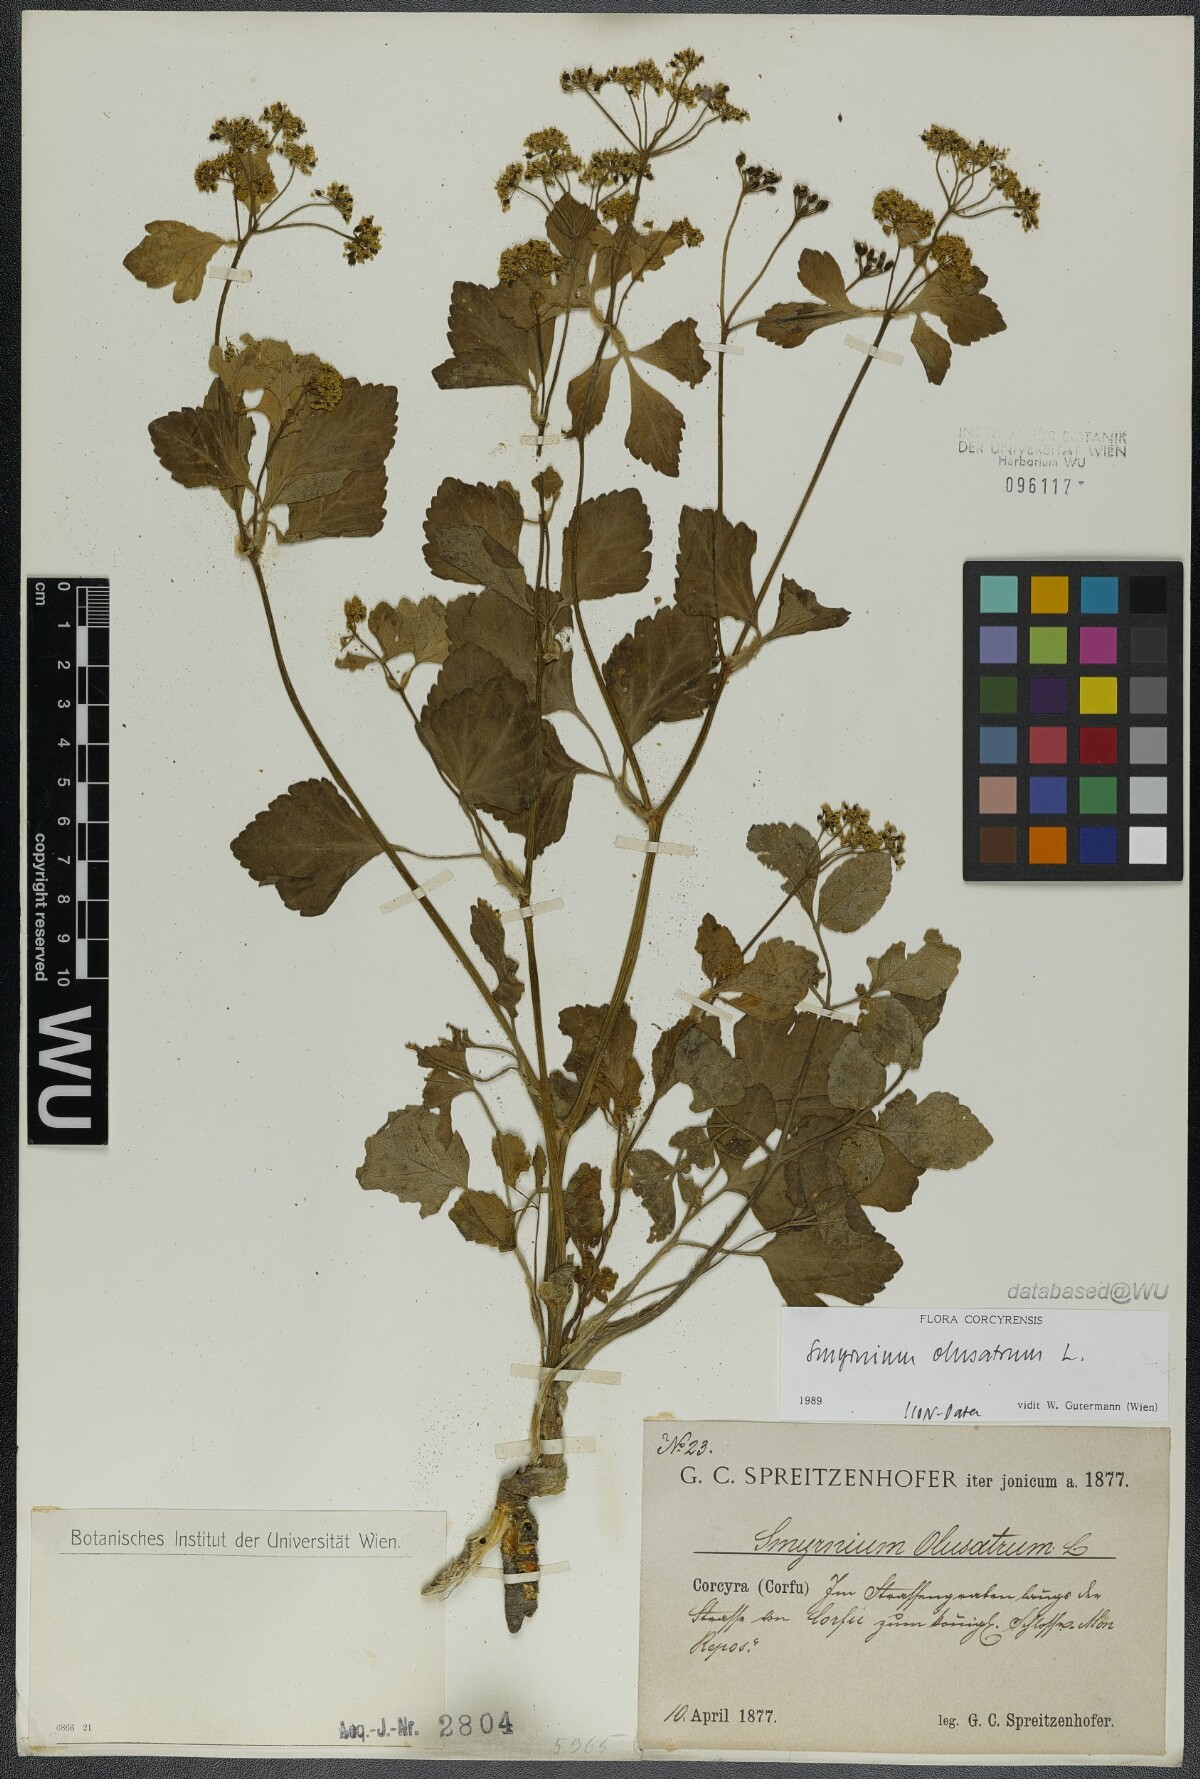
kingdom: Plantae
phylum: Tracheophyta
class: Magnoliopsida
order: Apiales
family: Apiaceae
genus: Smyrnium
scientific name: Smyrnium olusatrum
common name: Alexanders
